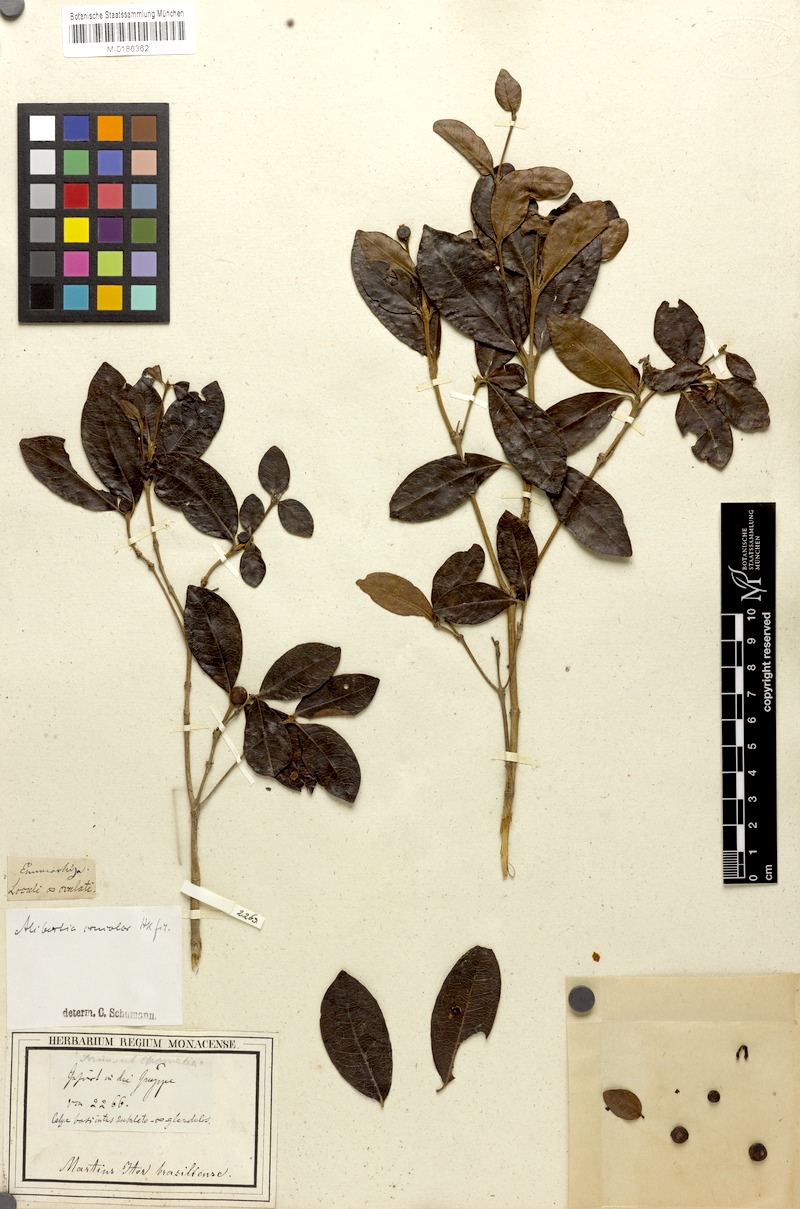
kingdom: Plantae
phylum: Tracheophyta
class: Magnoliopsida
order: Gentianales
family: Rubiaceae
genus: Cordiera
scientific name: Cordiera concolor
